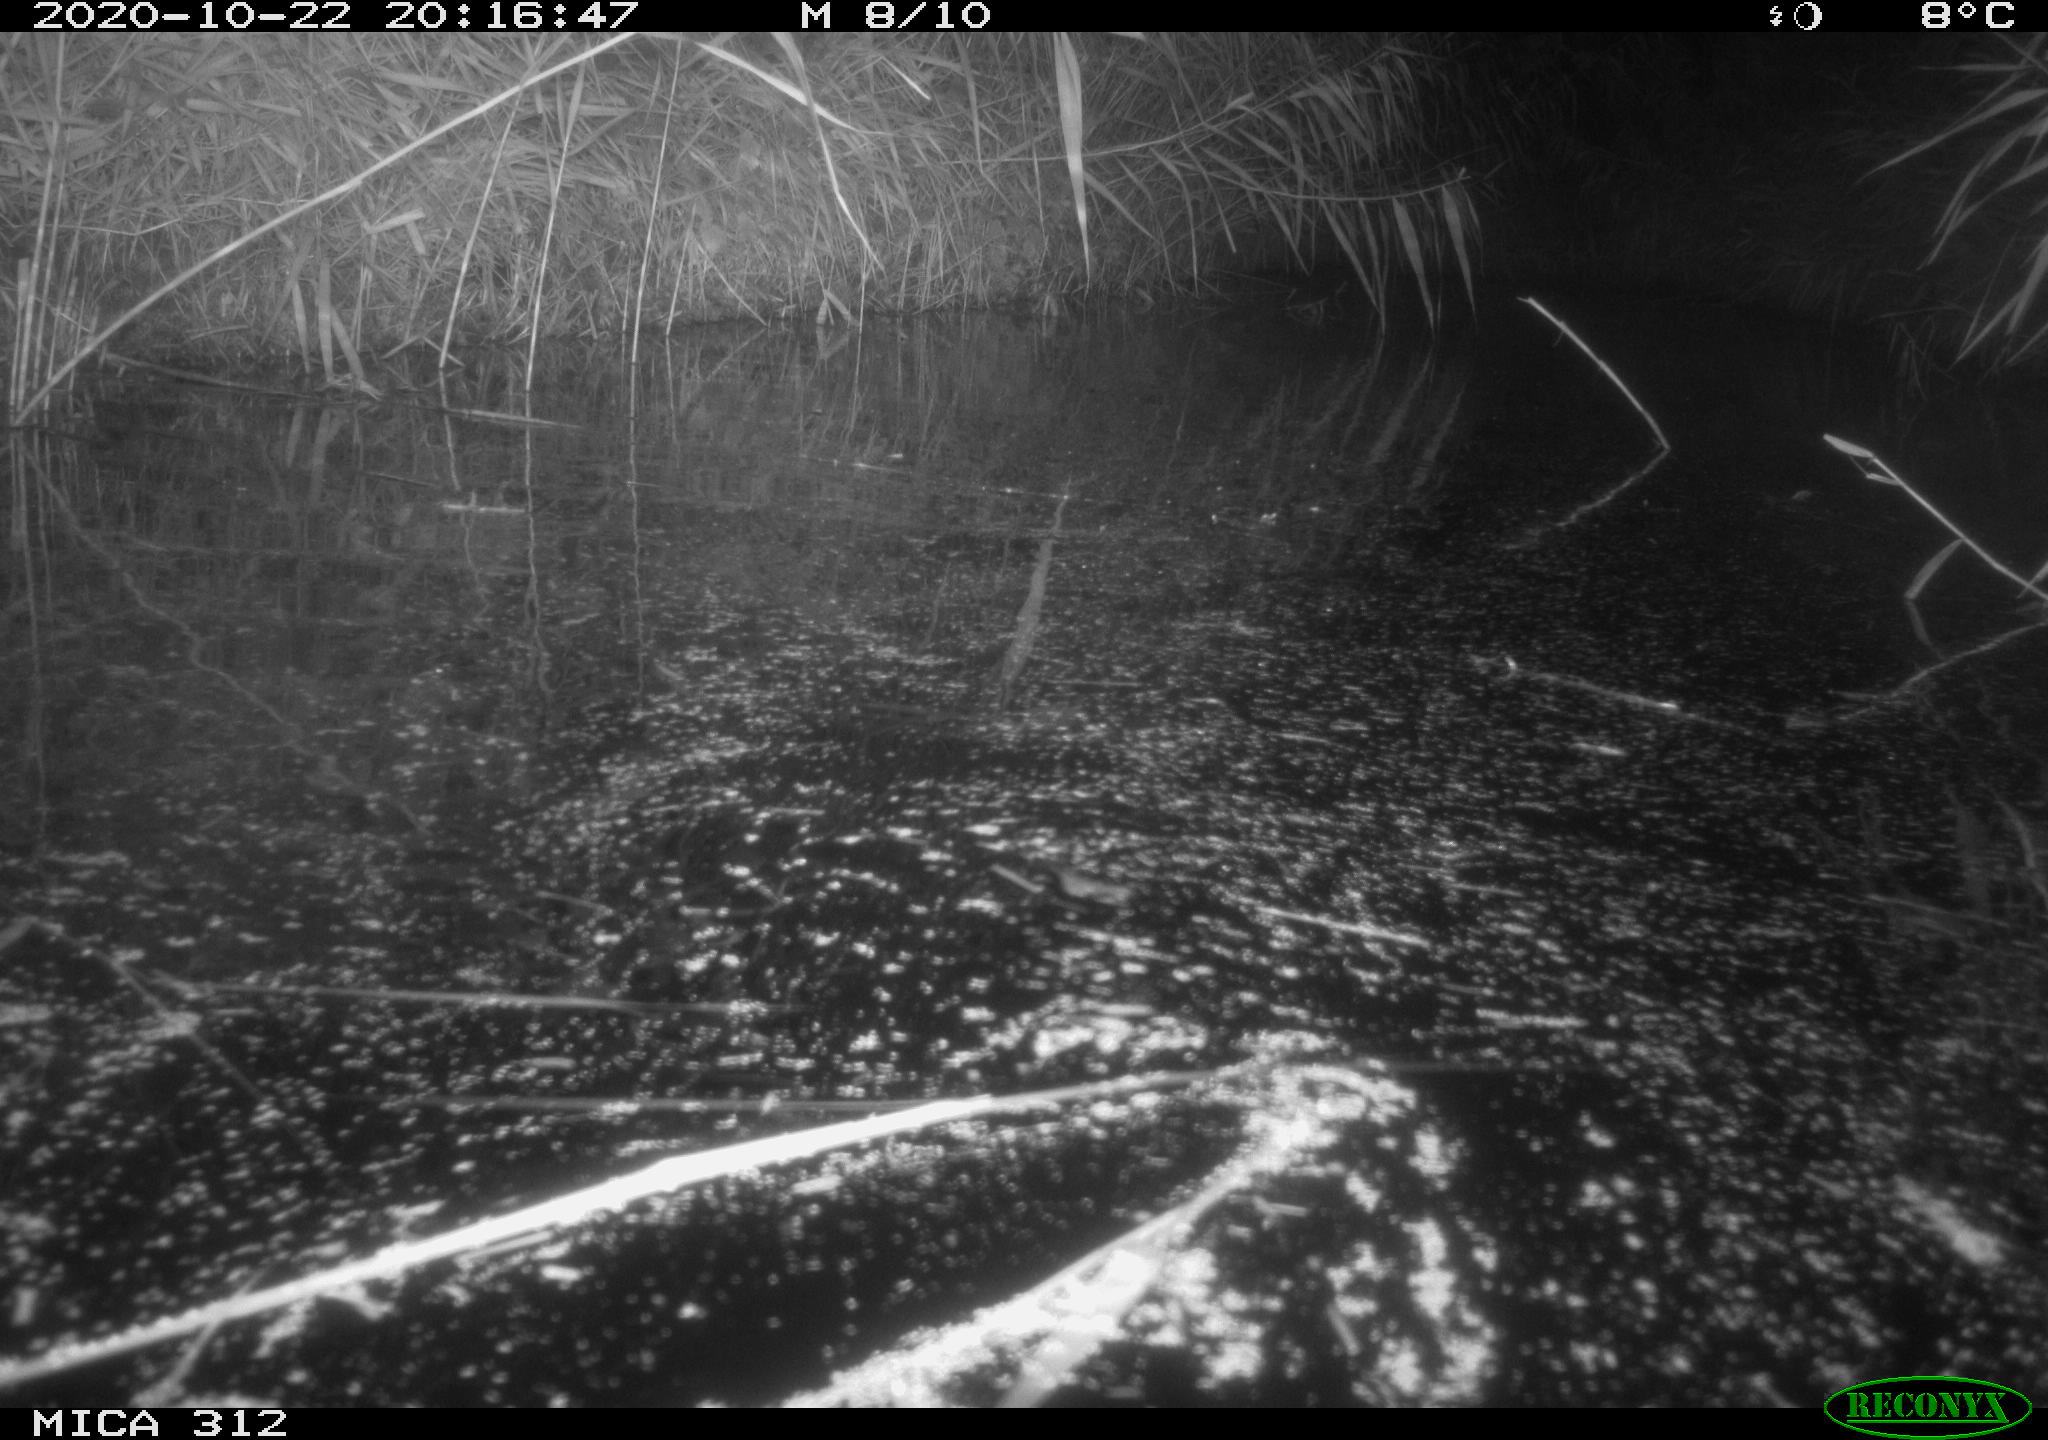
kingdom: Animalia
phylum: Chordata
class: Mammalia
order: Rodentia
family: Muridae
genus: Rattus
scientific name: Rattus norvegicus
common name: Brown rat
